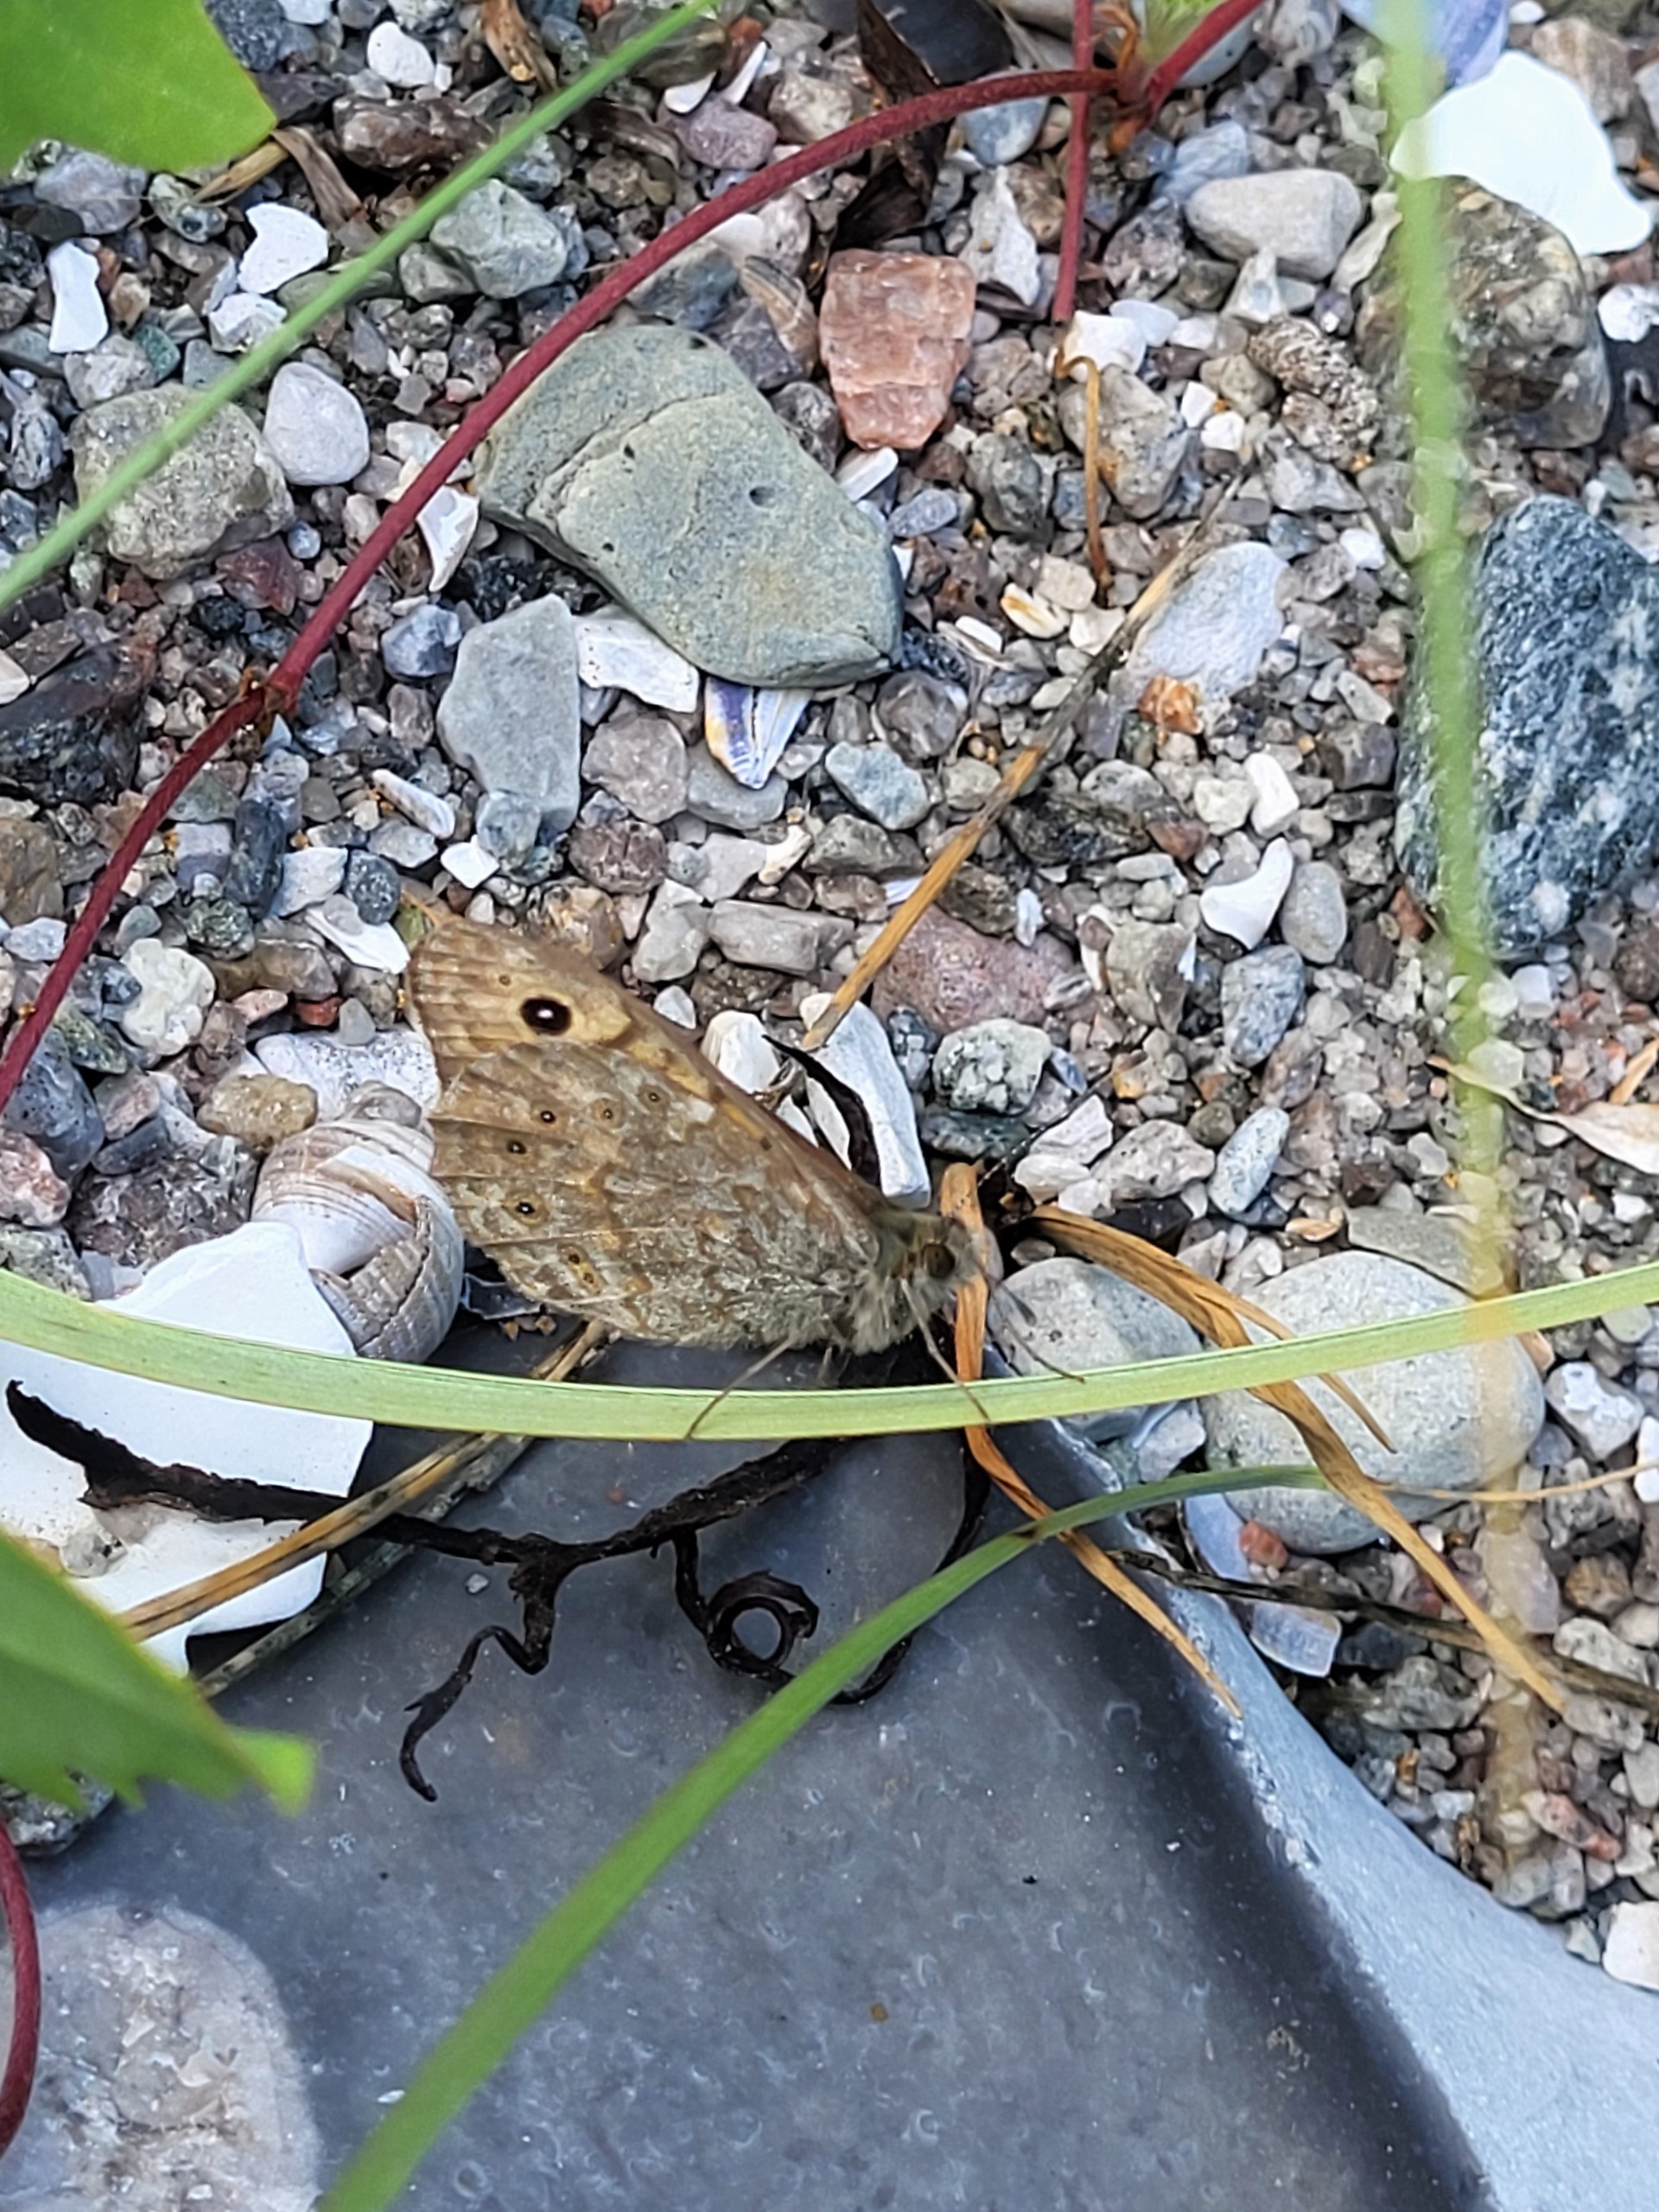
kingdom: Animalia
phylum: Arthropoda
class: Insecta
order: Lepidoptera
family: Nymphalidae
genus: Pararge
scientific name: Pararge Lasiommata megera
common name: Vejrandøje
